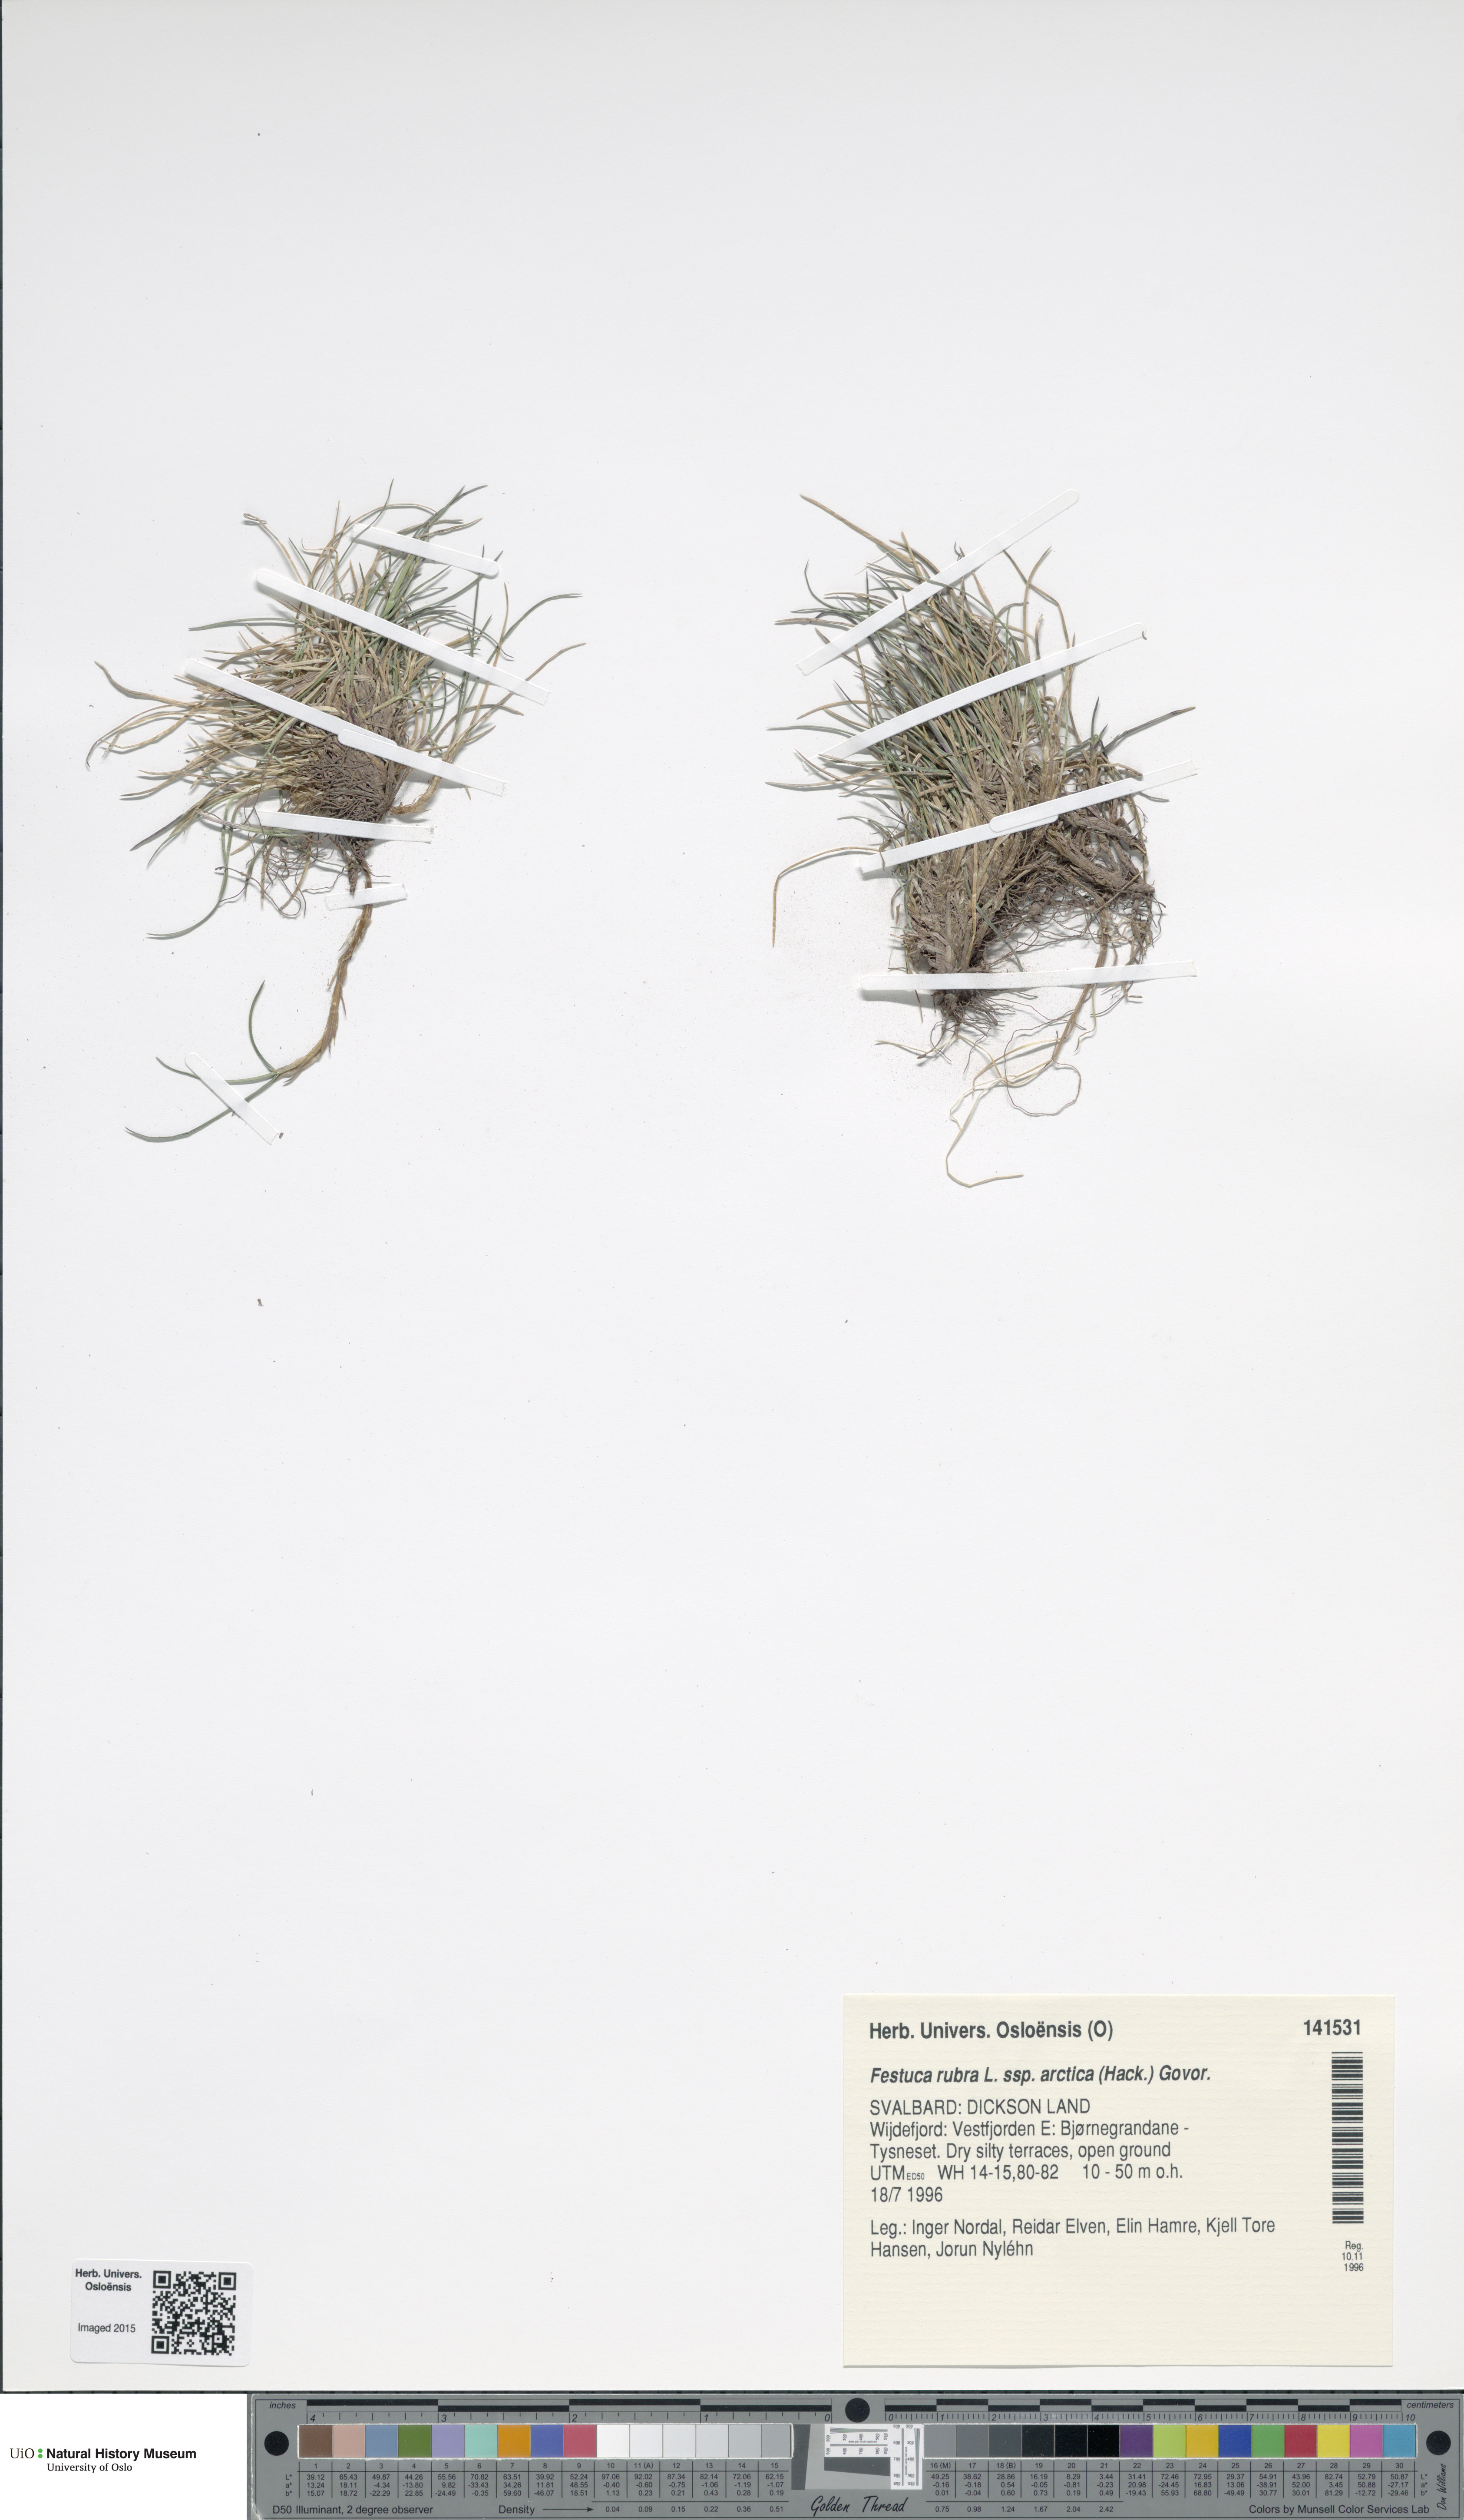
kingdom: Plantae
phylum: Tracheophyta
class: Liliopsida
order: Poales
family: Poaceae
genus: Festuca
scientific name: Festuca richardsonii
